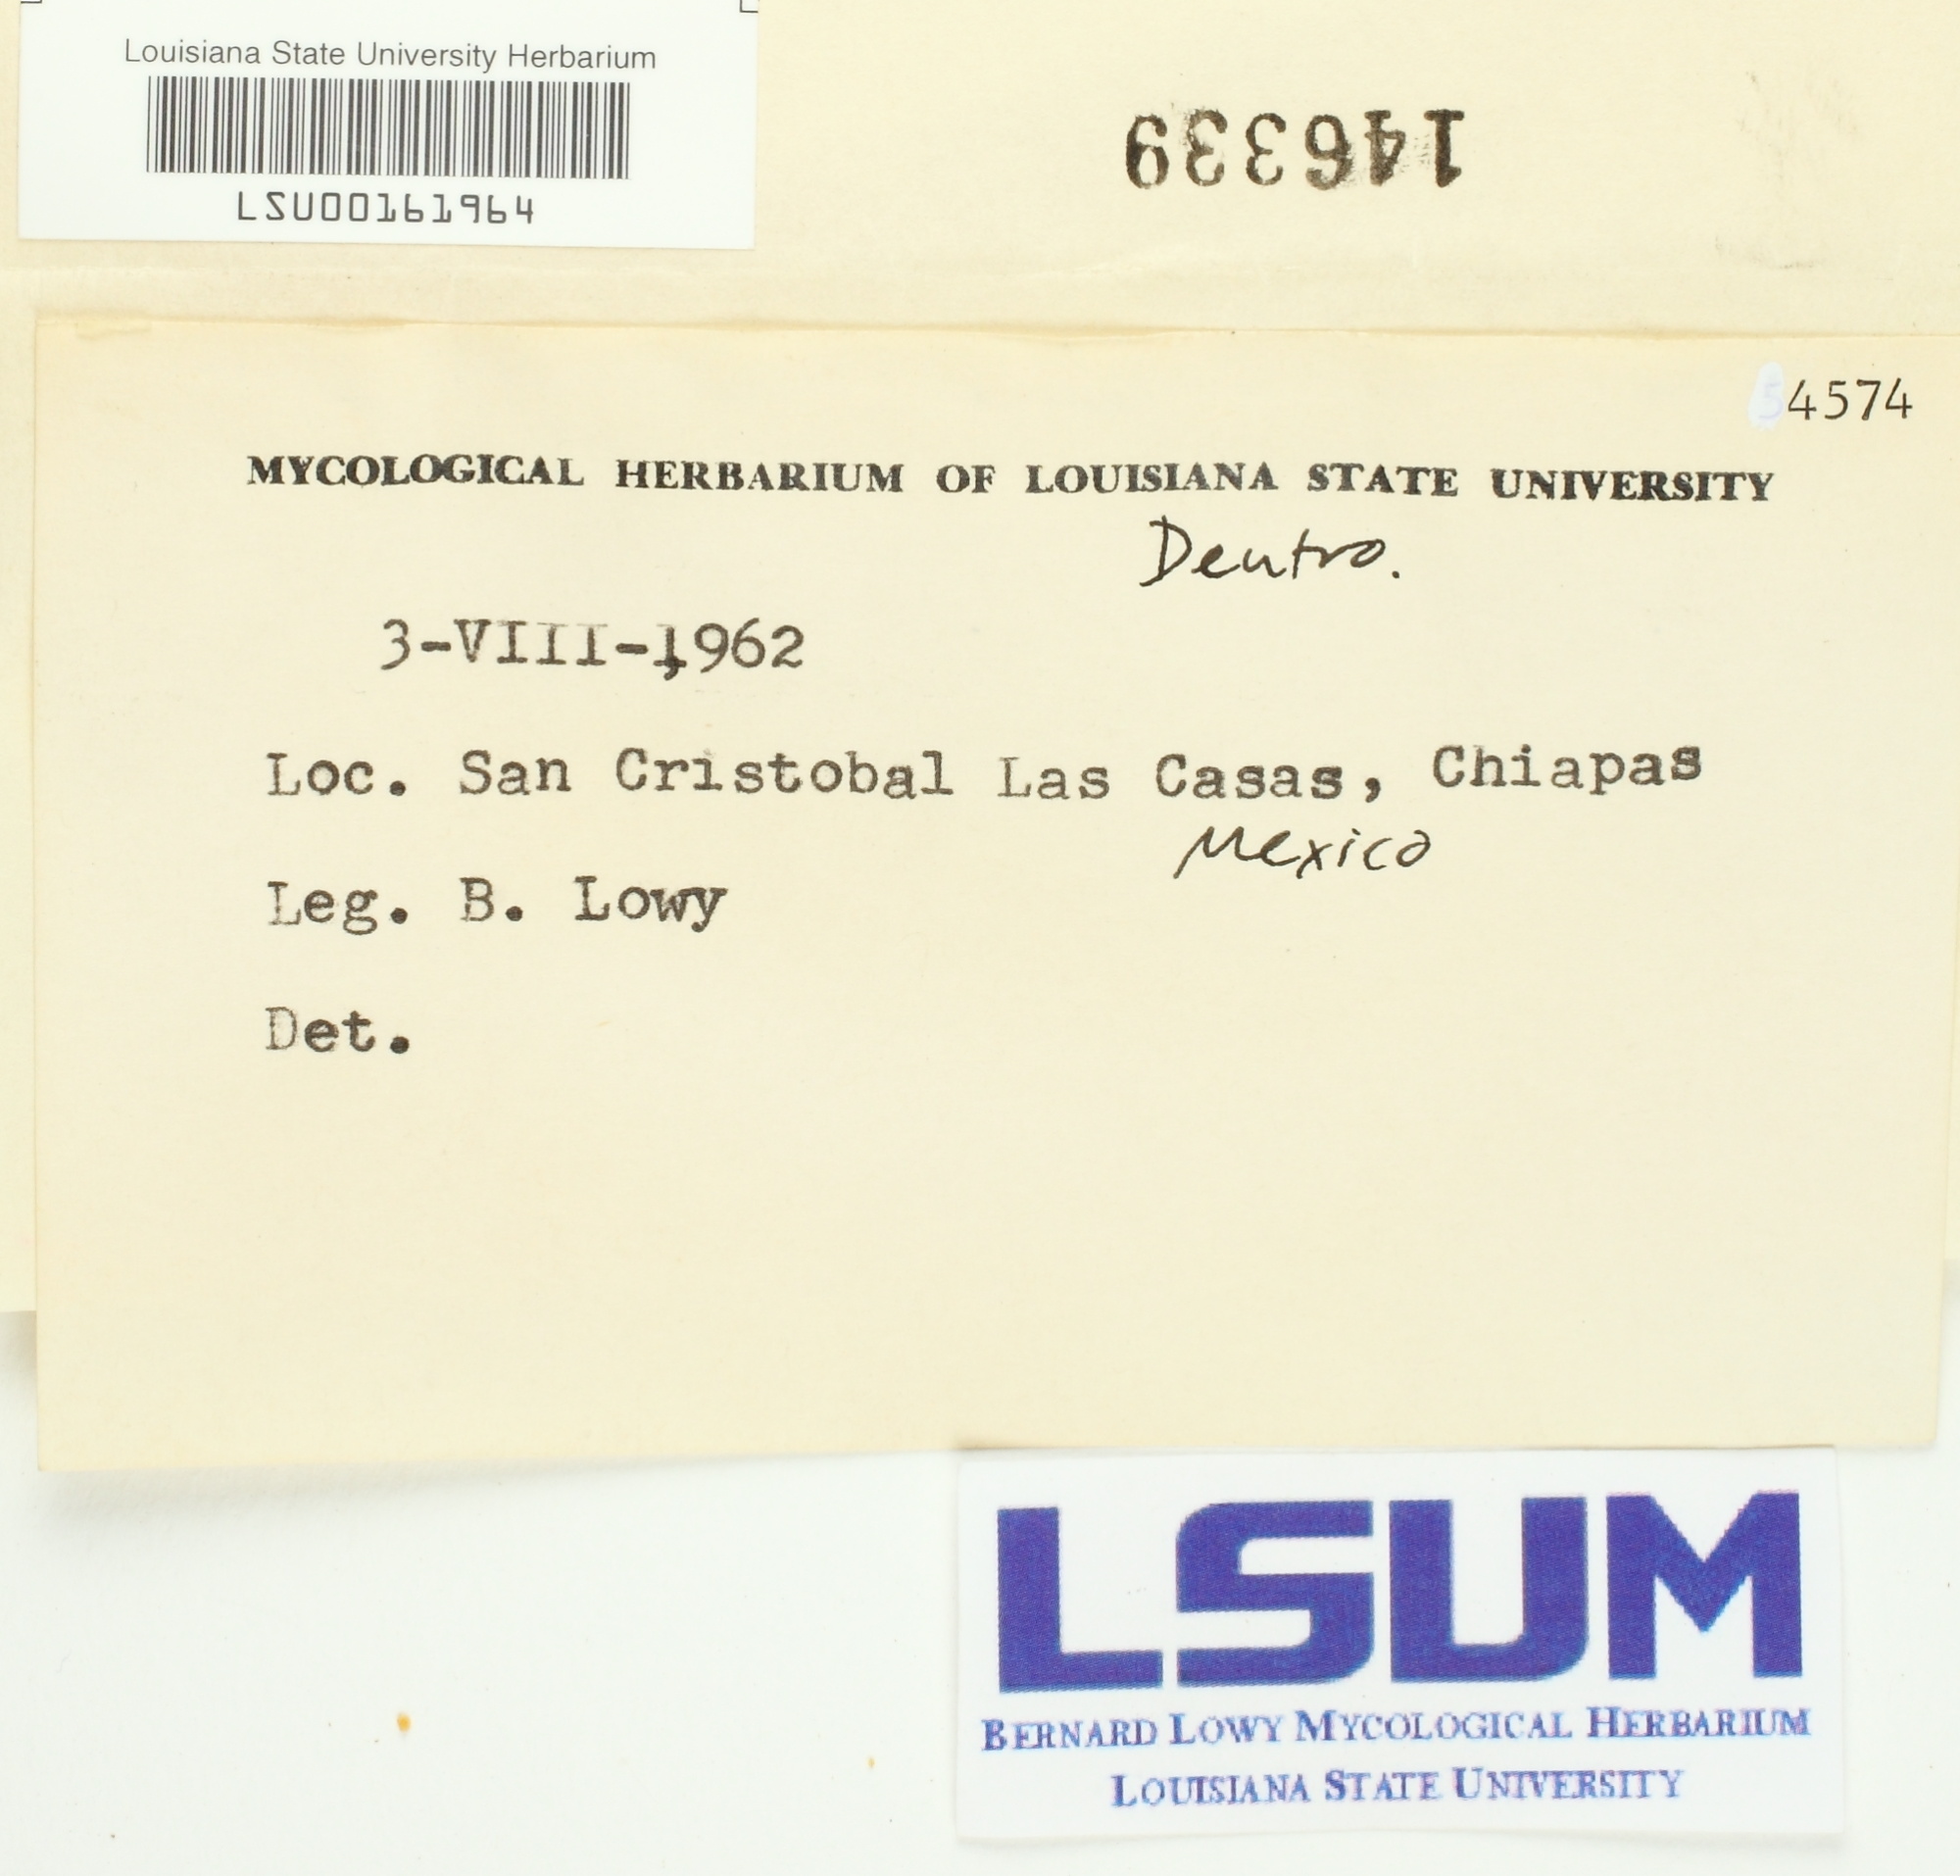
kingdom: Fungi
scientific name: Fungi
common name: Fungi
